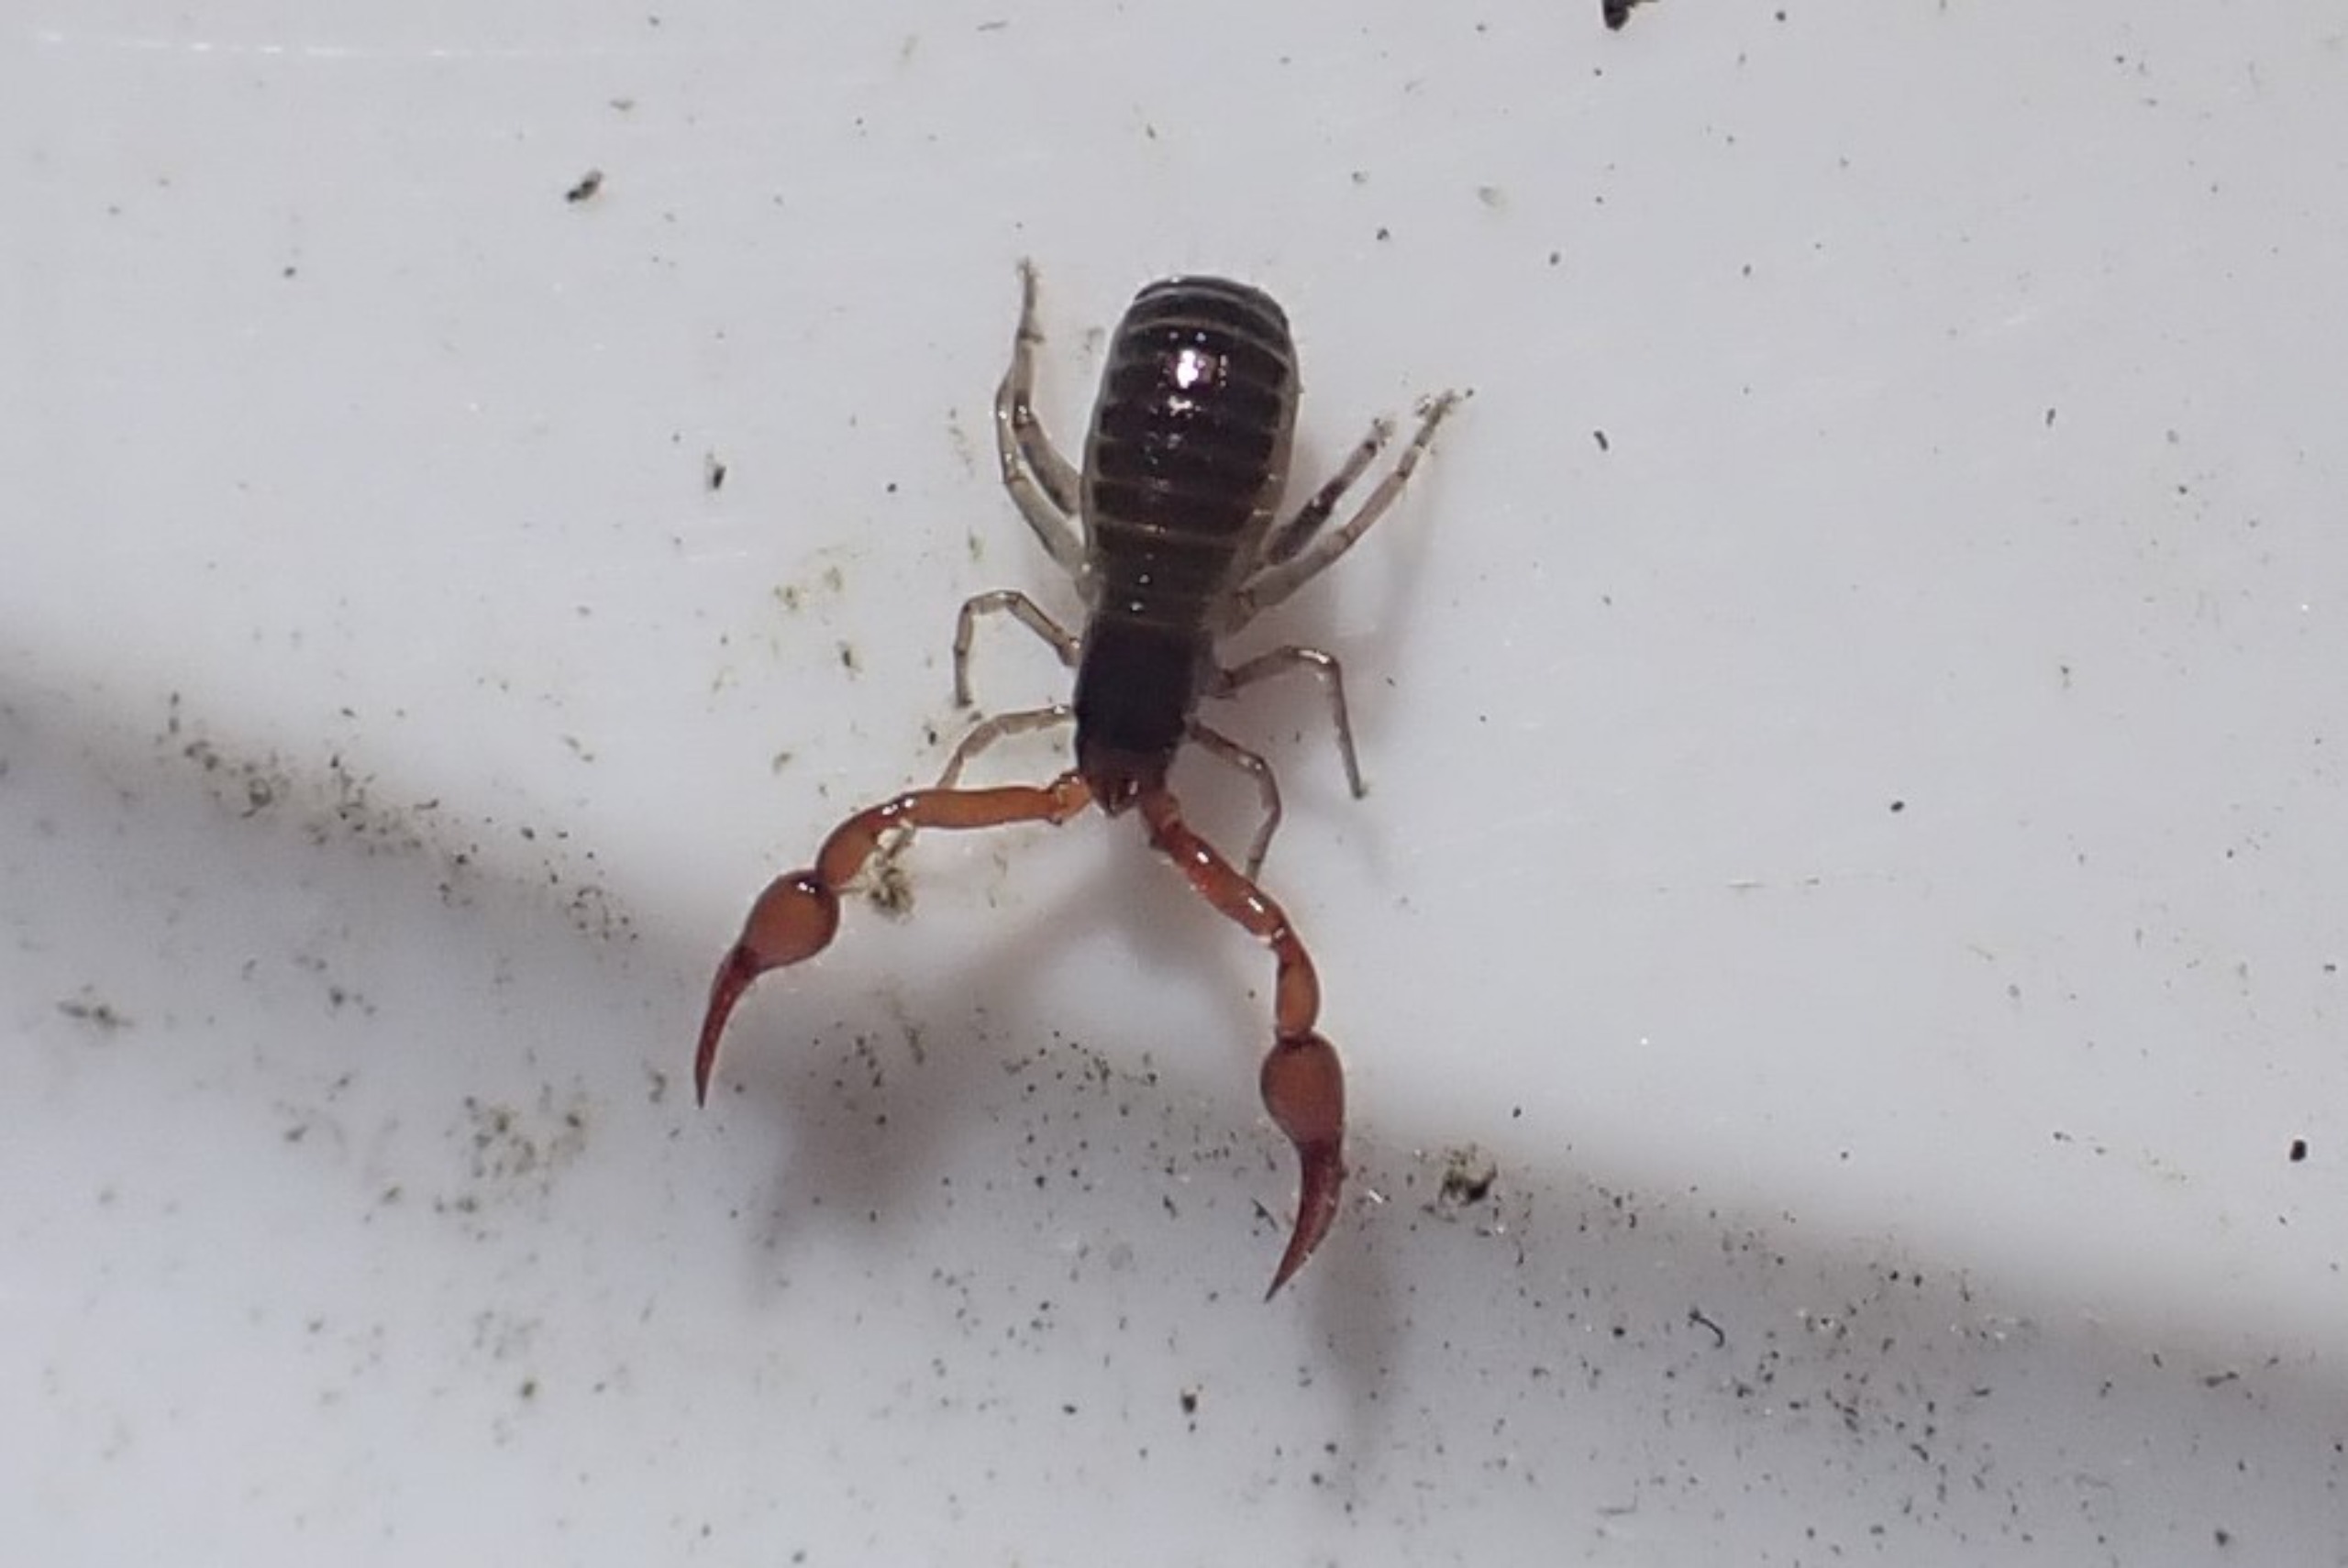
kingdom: Animalia
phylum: Arthropoda
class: Arachnida
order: Pseudoscorpiones
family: Neobisiidae
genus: Neobisium
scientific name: Neobisium carcinoides
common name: Almindelig mosskorpion
